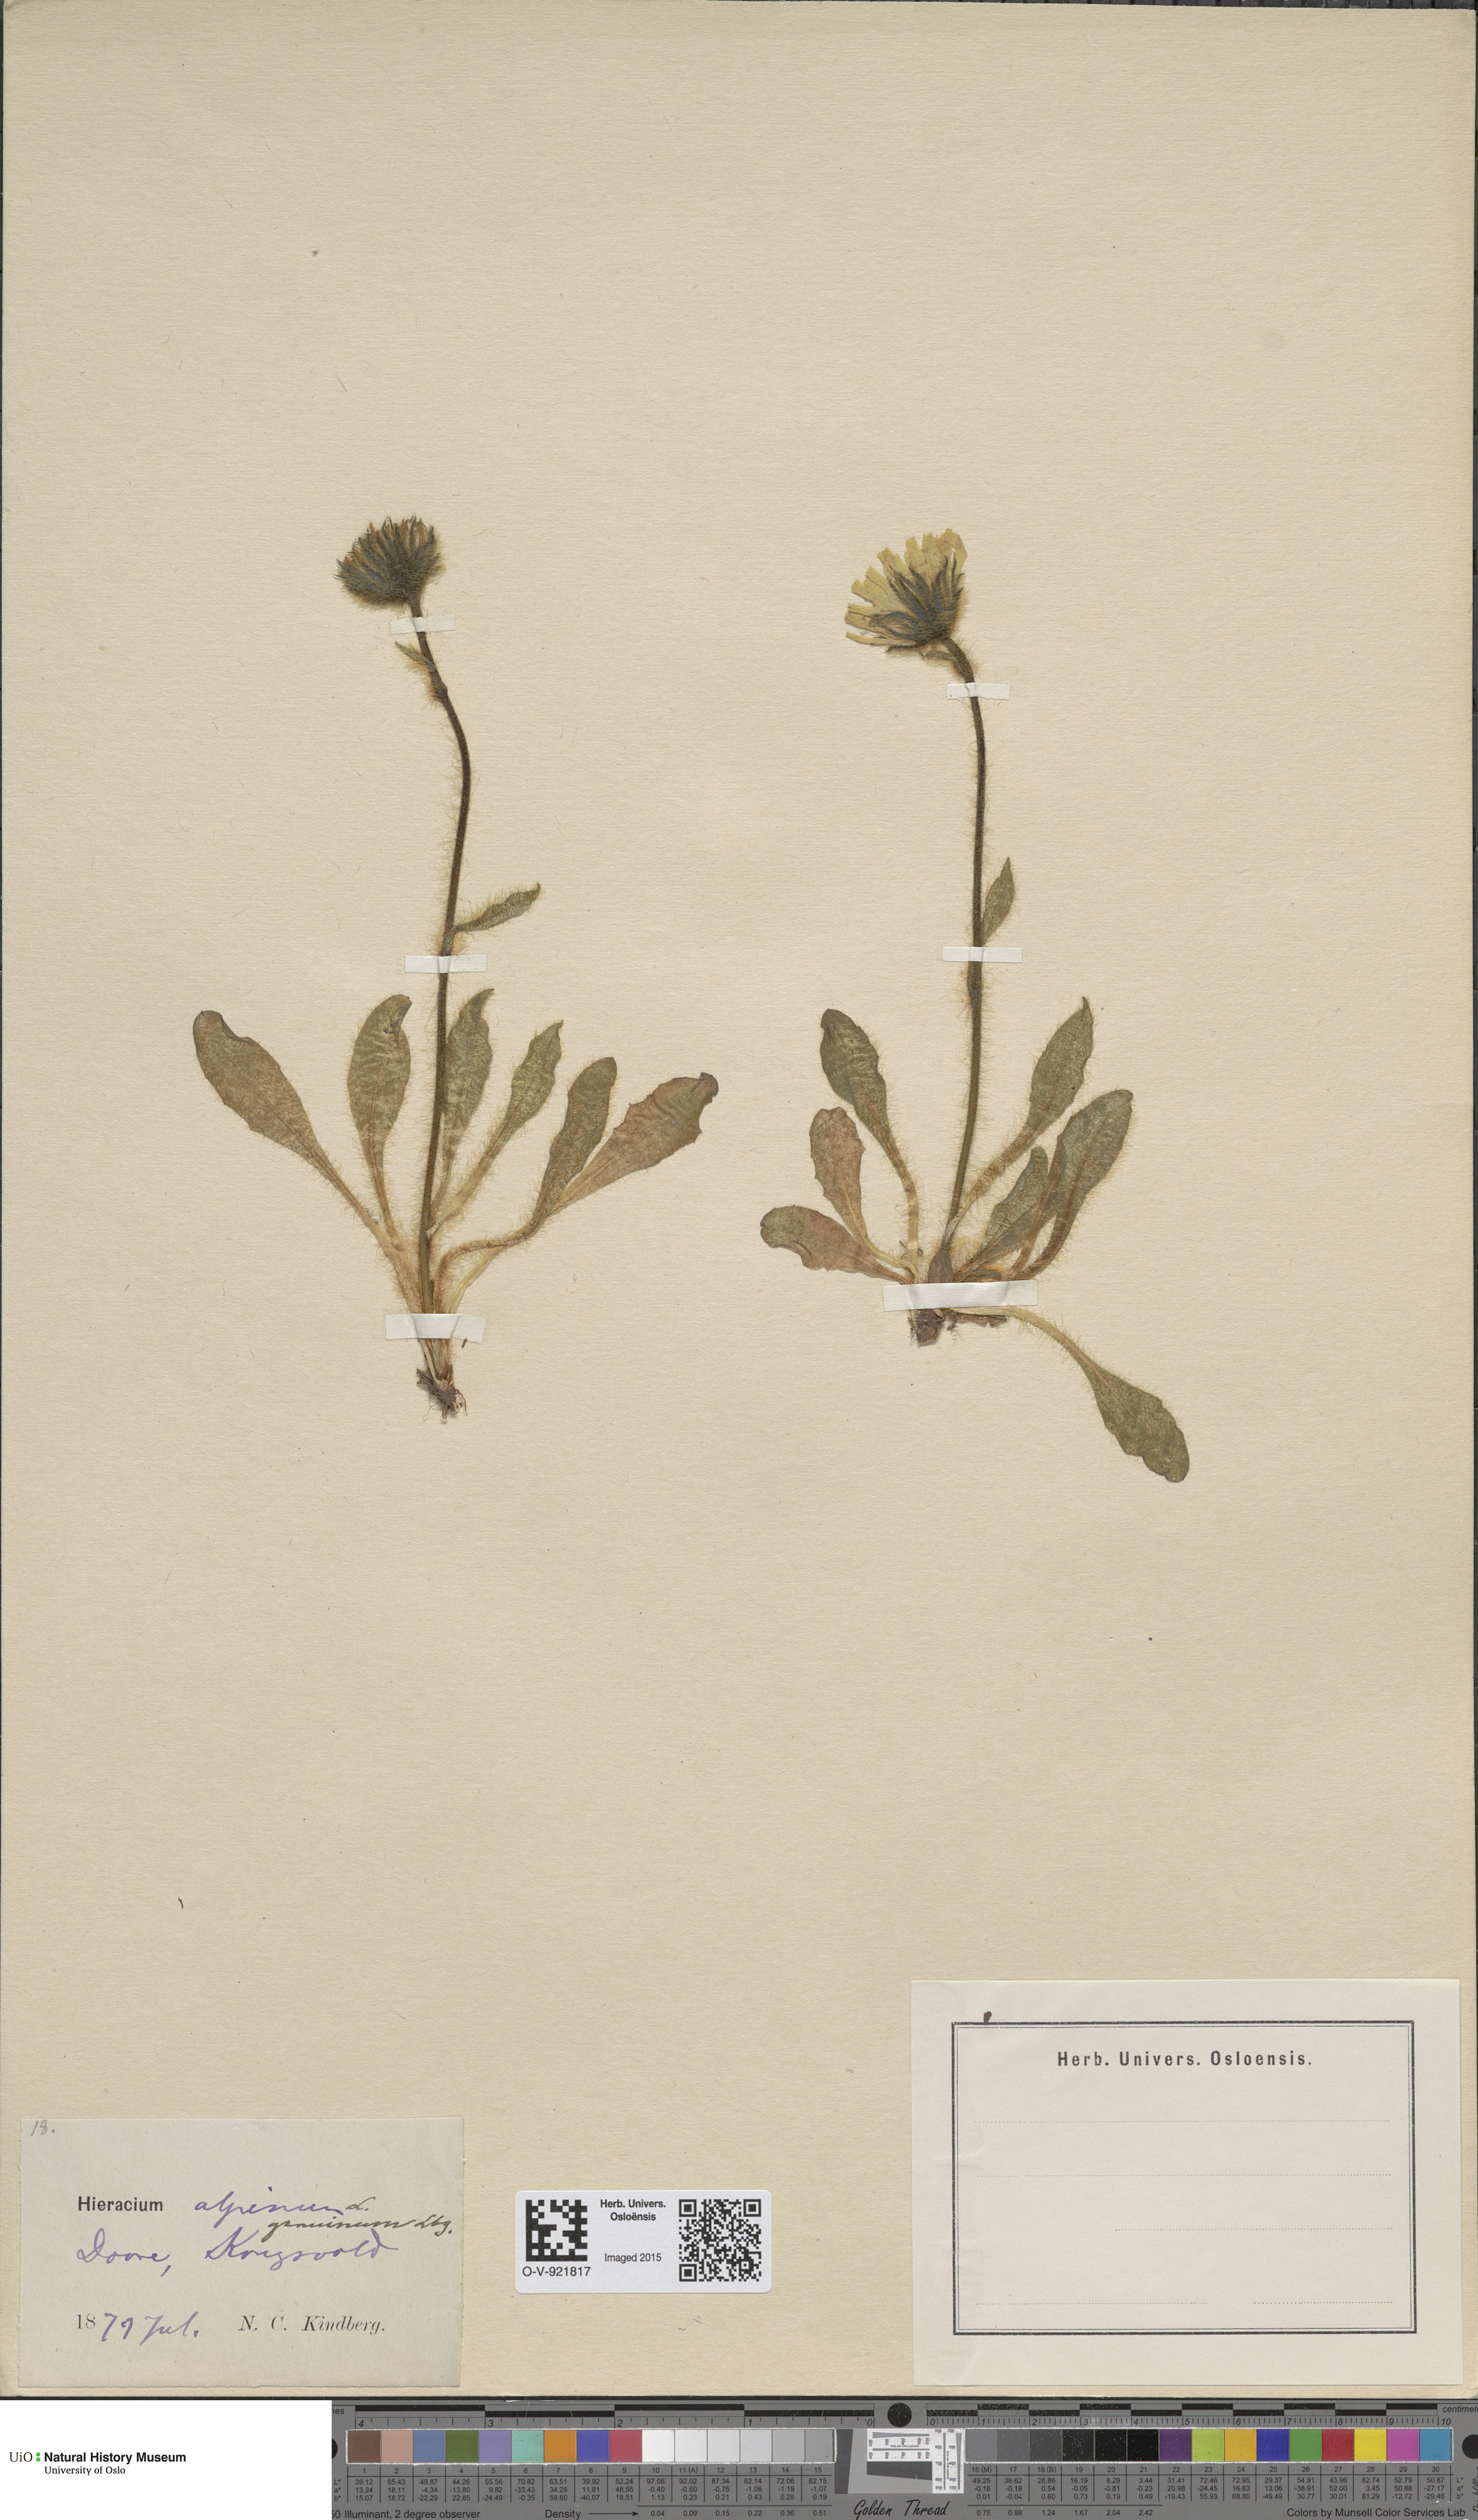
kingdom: Plantae
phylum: Tracheophyta
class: Magnoliopsida
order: Asterales
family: Asteraceae
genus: Hieracium
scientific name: Hieracium alpinum
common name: Alpine hawkweed
